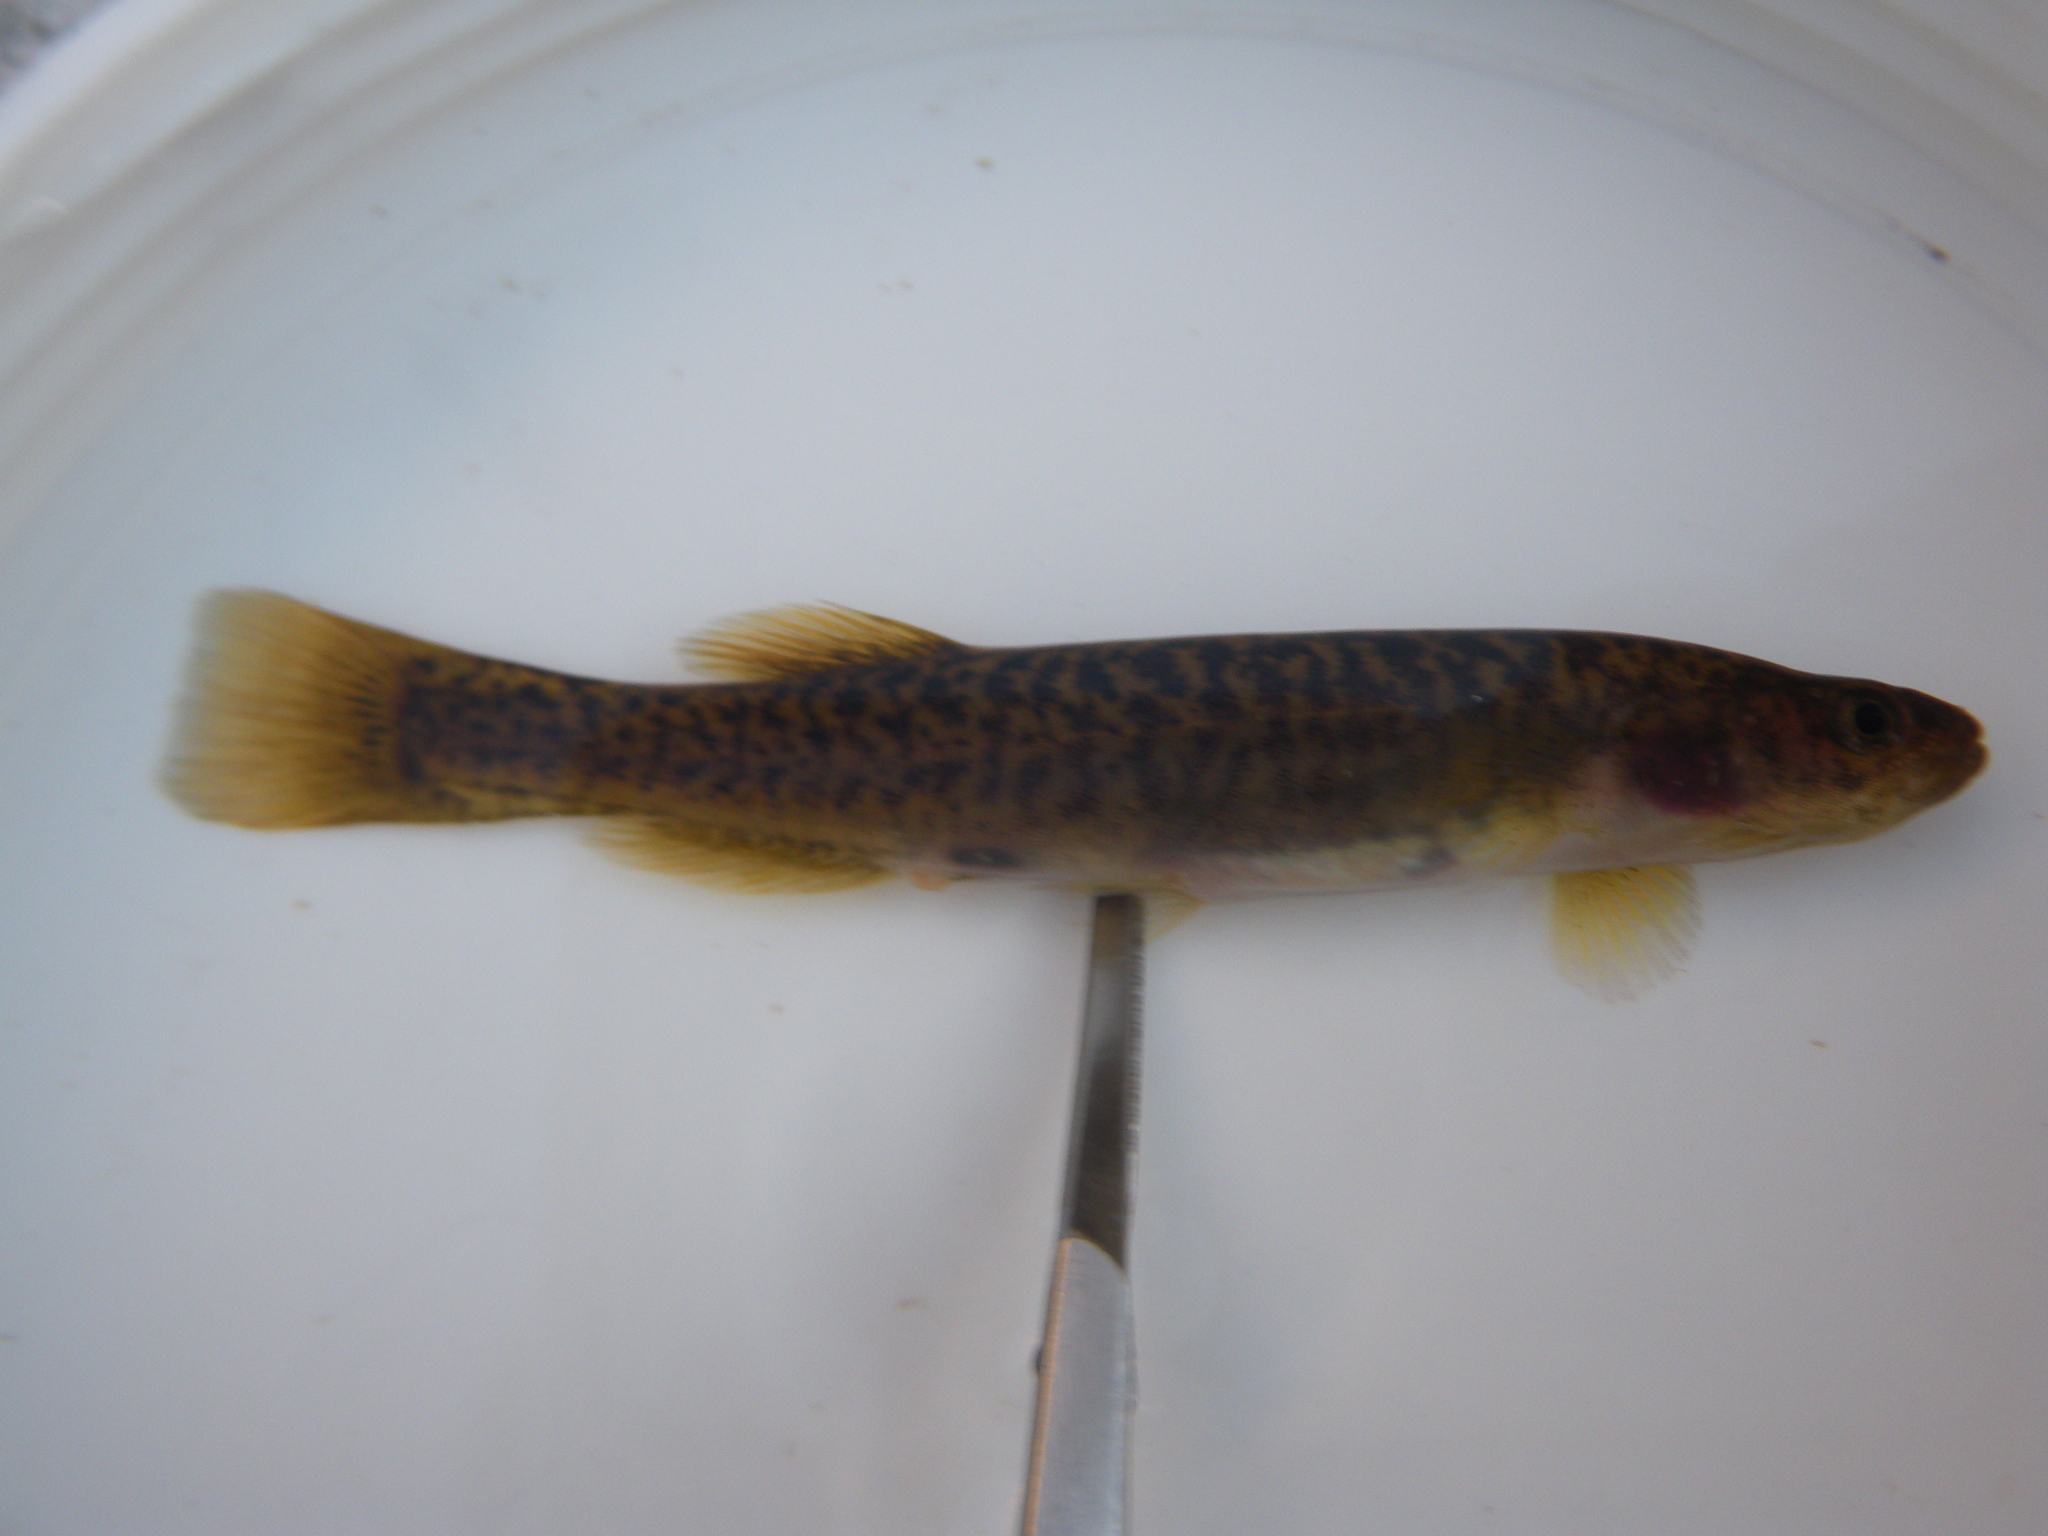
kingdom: Animalia
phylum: Chordata
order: Osmeriformes
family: Galaxiidae
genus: Galaxias
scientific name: Galaxias
